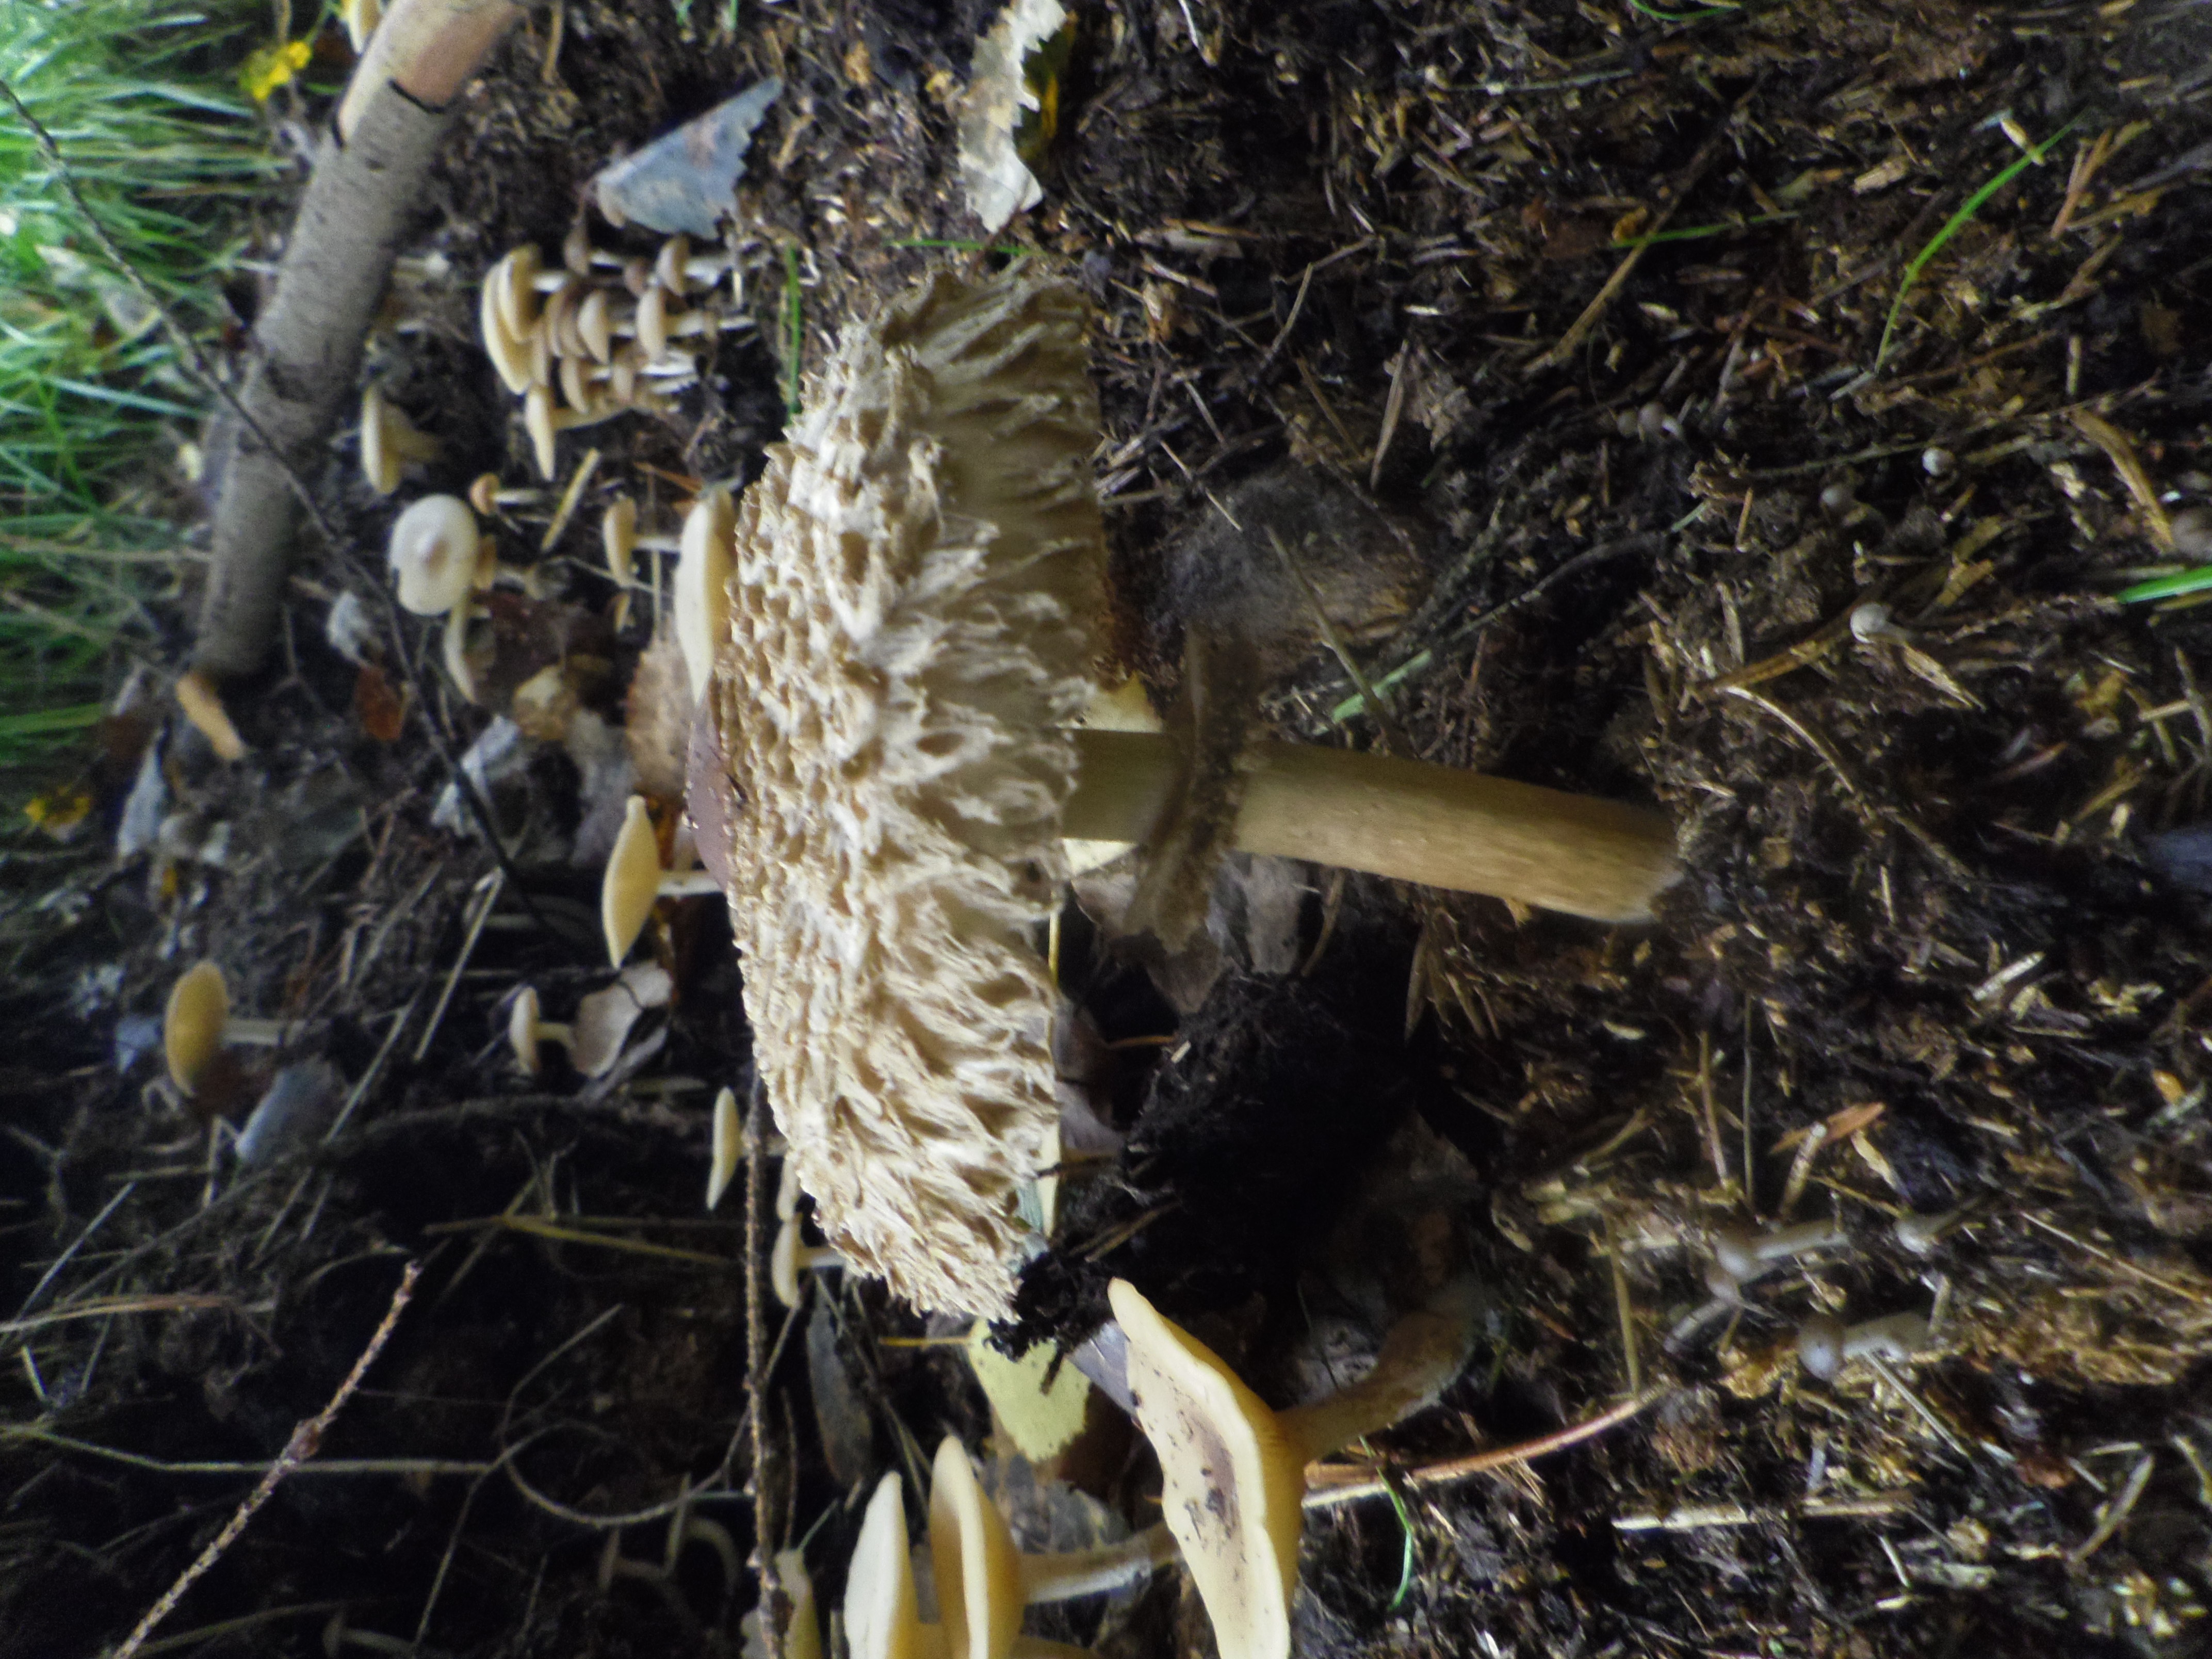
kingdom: Fungi
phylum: Basidiomycota
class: Agaricomycetes
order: Agaricales
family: Agaricaceae
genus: Chlorophyllum
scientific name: Chlorophyllum olivieri
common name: Conifer parasol
